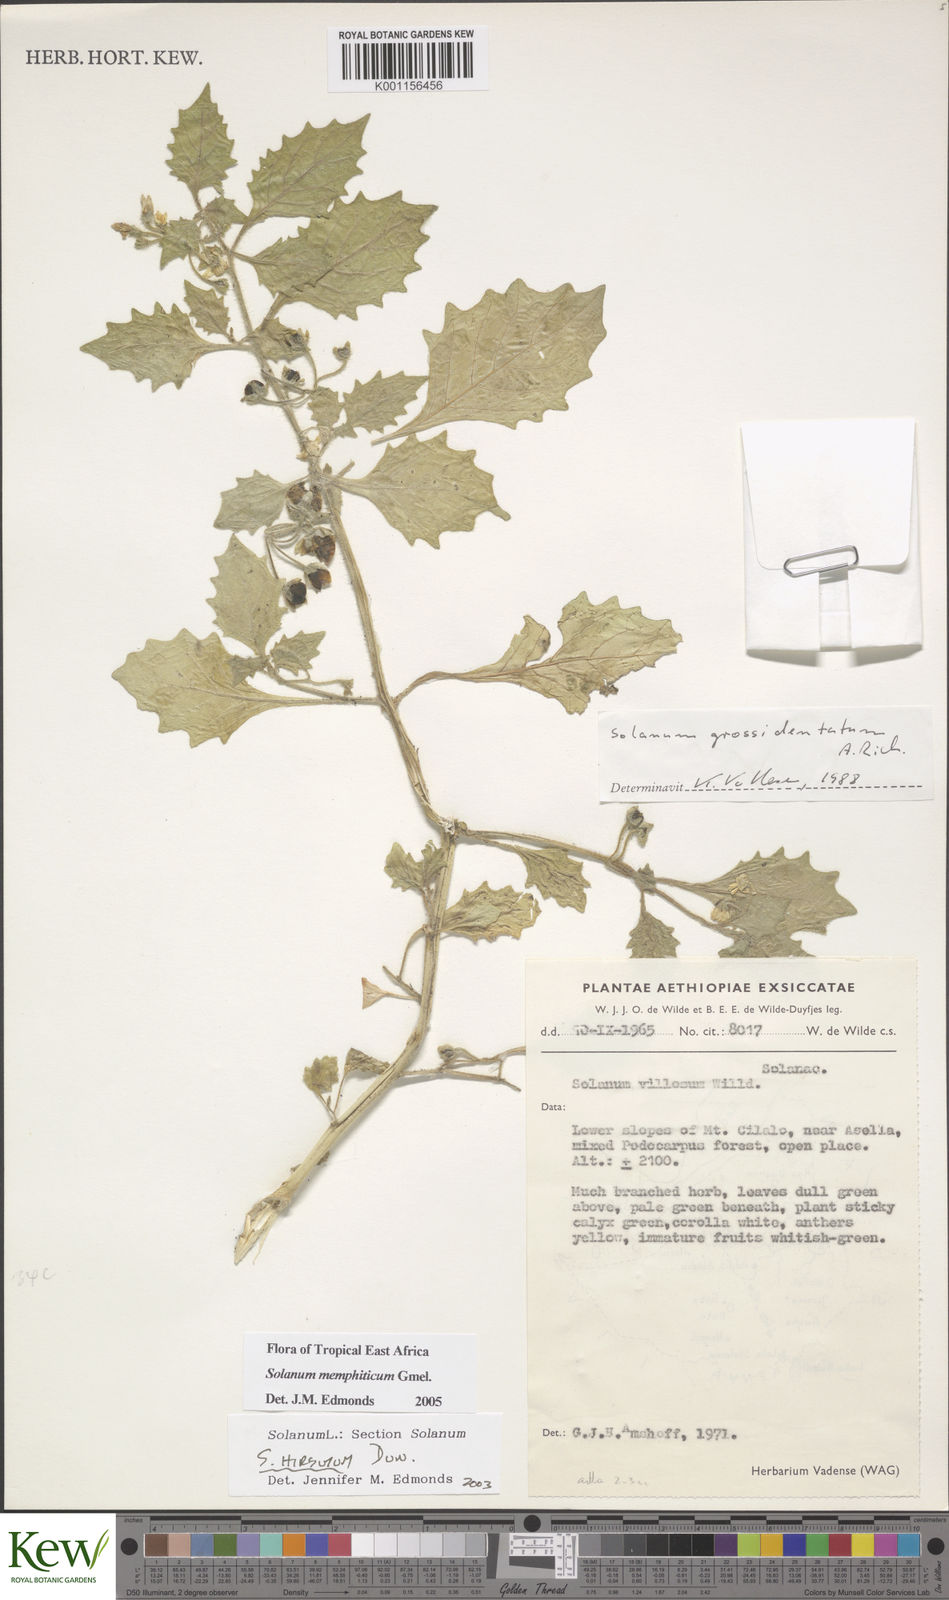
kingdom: Plantae
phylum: Tracheophyta
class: Magnoliopsida
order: Solanales
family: Solanaceae
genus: Solanum
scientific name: Solanum memphiticum
